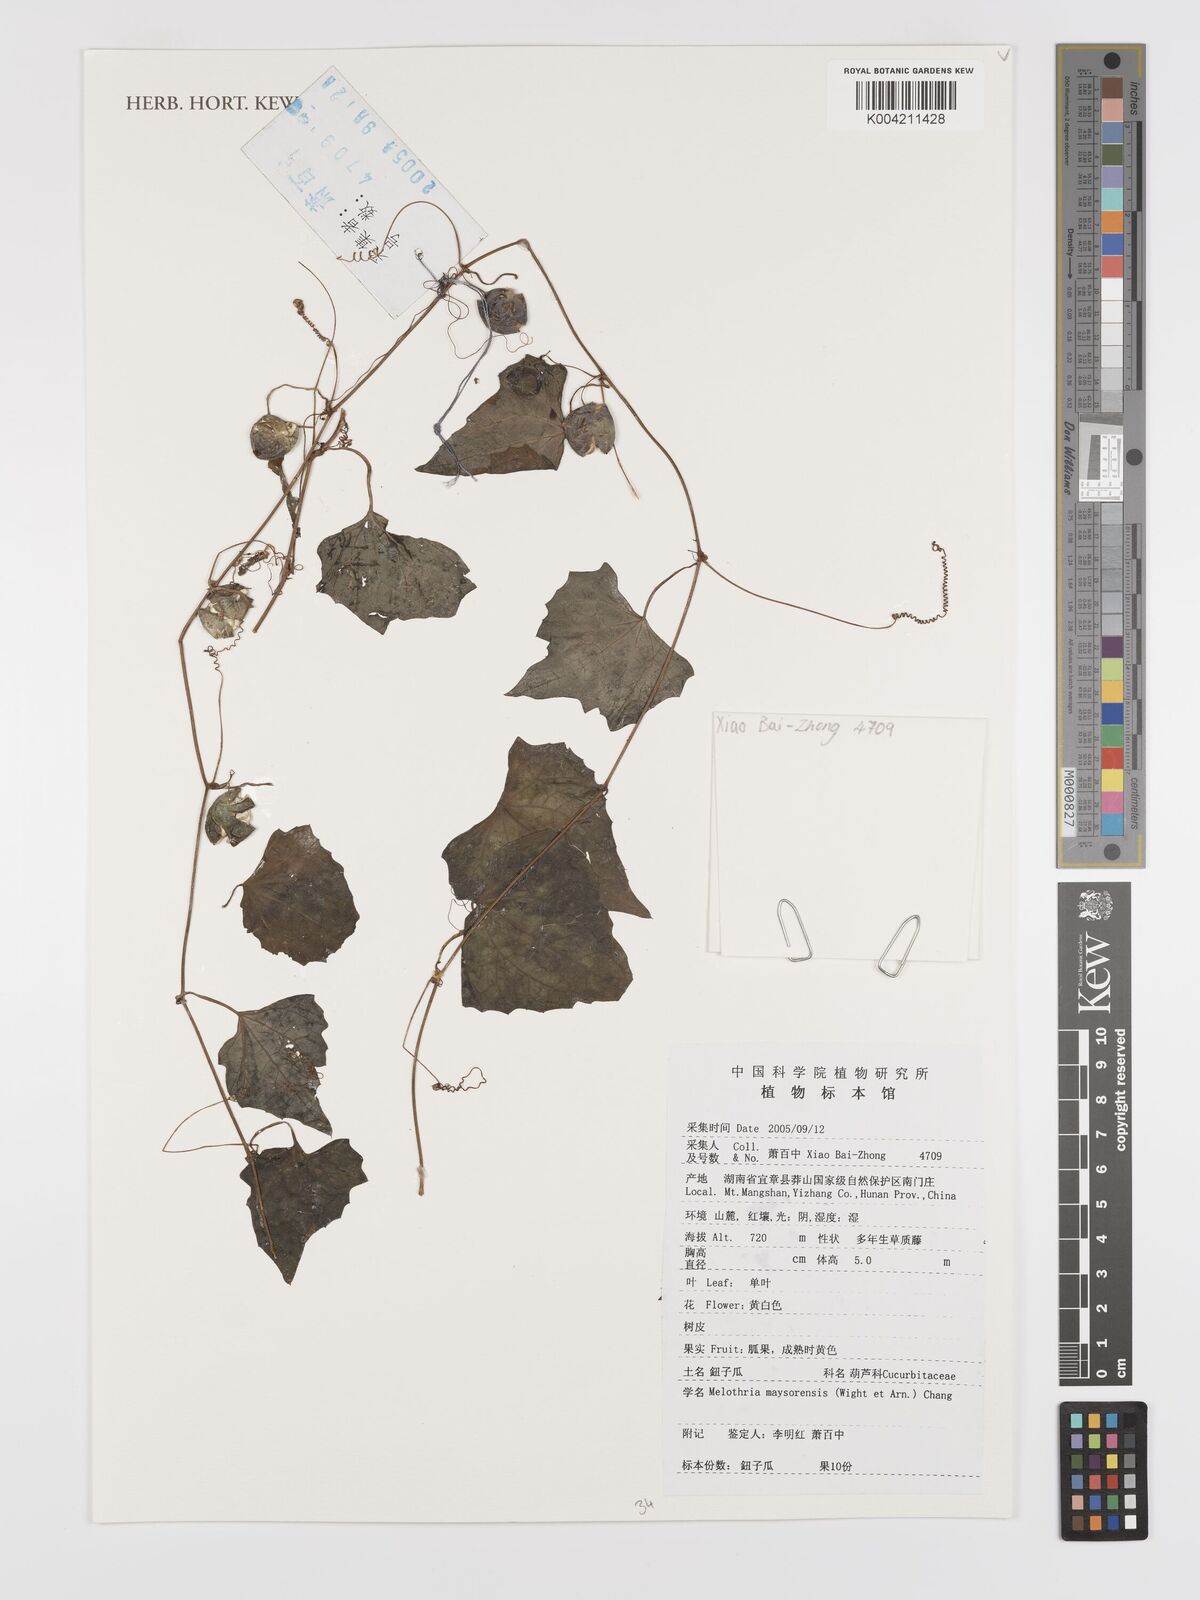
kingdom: Plantae
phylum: Tracheophyta
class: Magnoliopsida
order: Cucurbitales
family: Cucurbitaceae
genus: Zehneria
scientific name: Zehneria maysorensis
